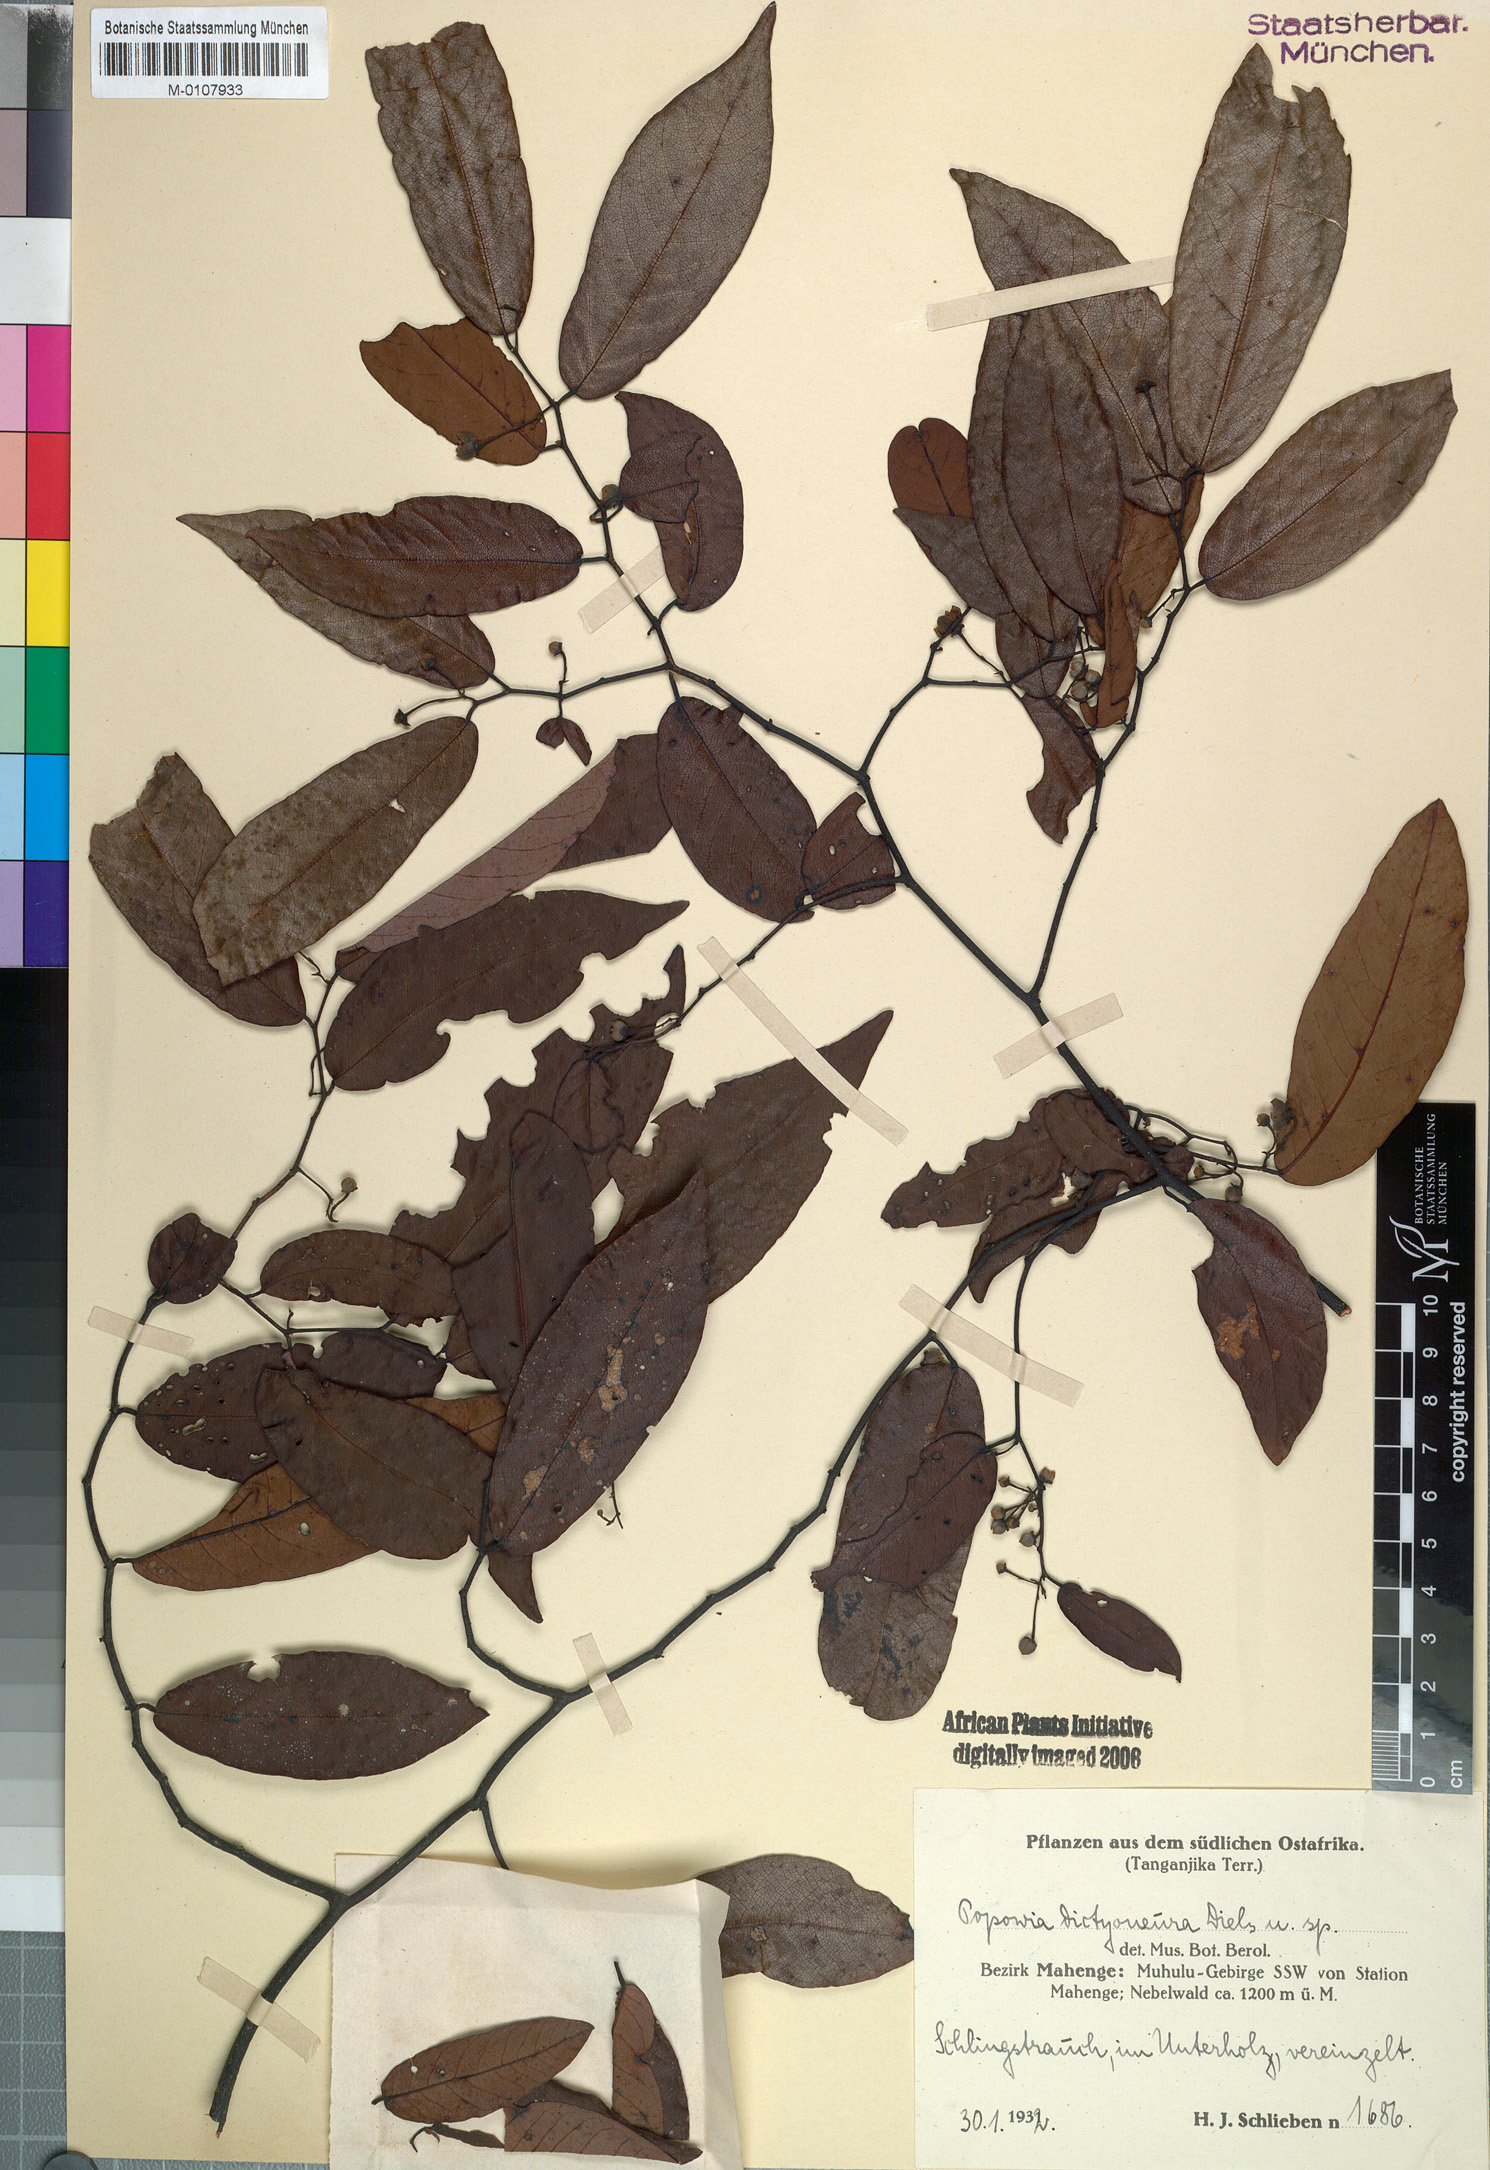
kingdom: Plantae
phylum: Tracheophyta
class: Magnoliopsida
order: Magnoliales
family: Annonaceae
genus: Monanthotaxis
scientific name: Monanthotaxis dictyoneura
